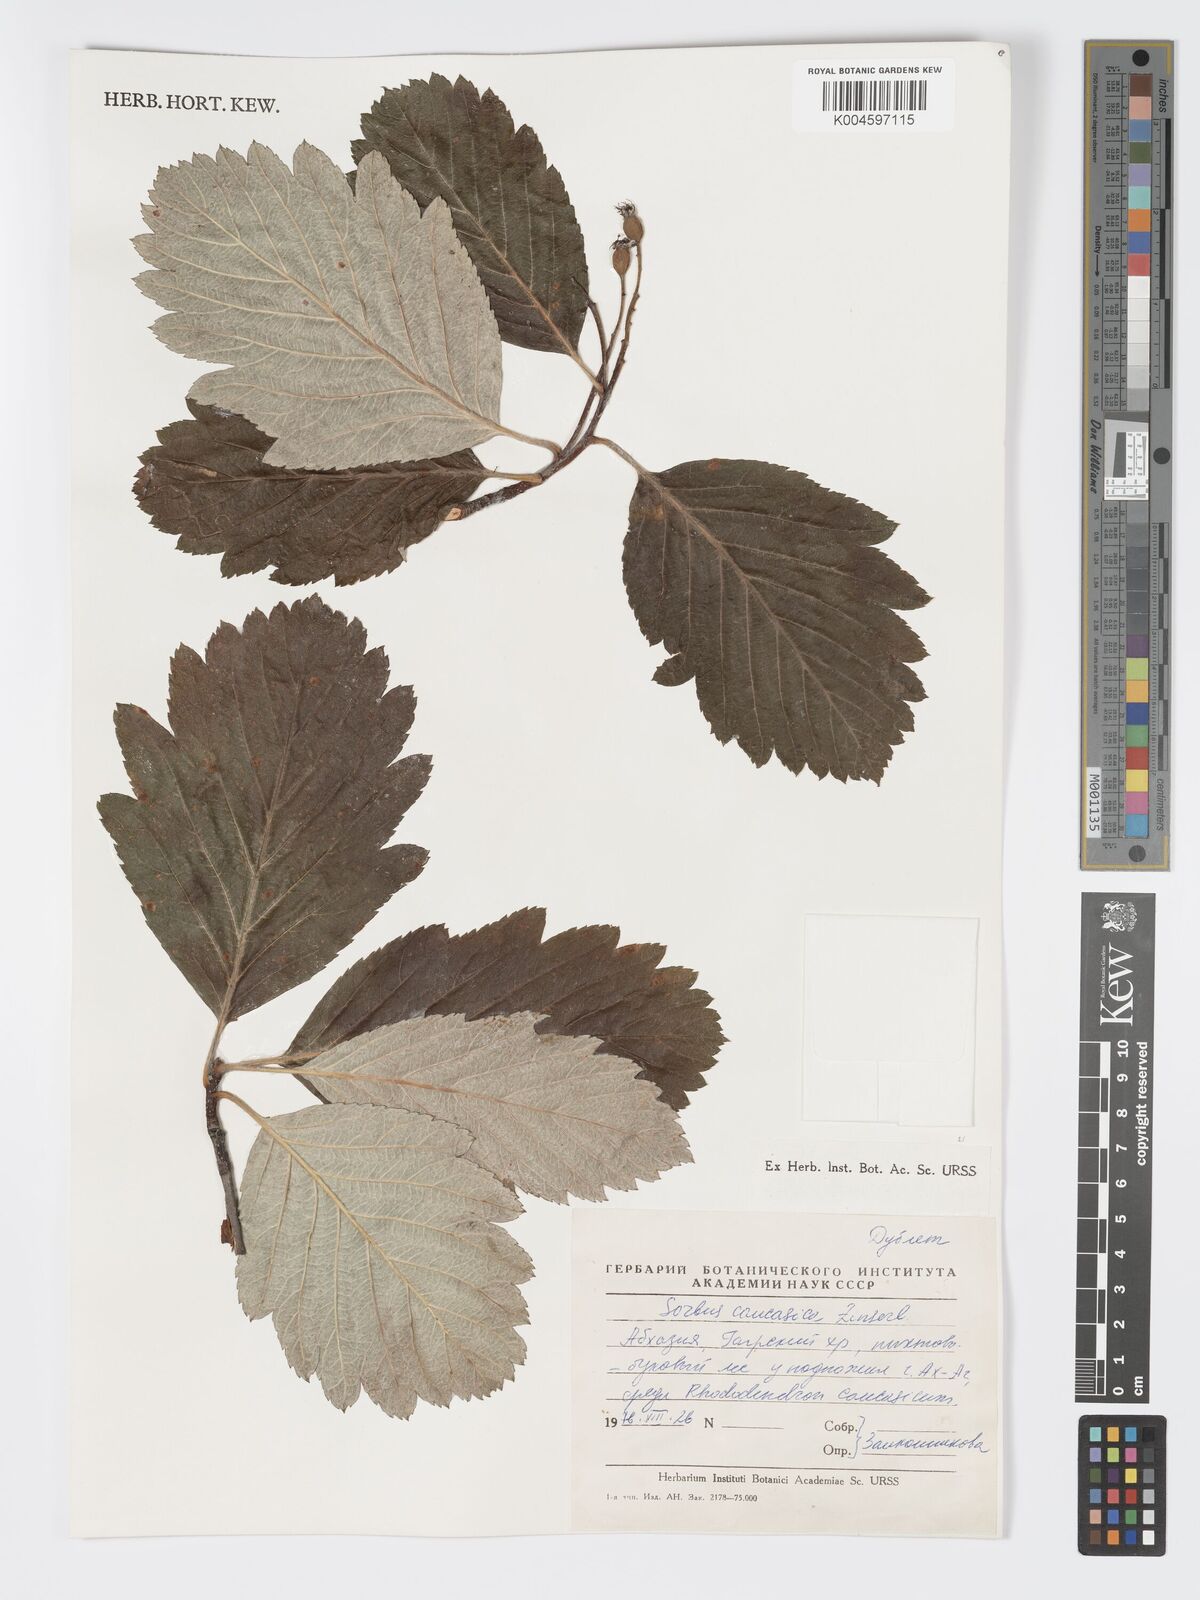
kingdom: Plantae
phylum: Tracheophyta
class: Magnoliopsida
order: Rosales
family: Rosaceae
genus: Hedlundia
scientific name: Hedlundia armeniaca
